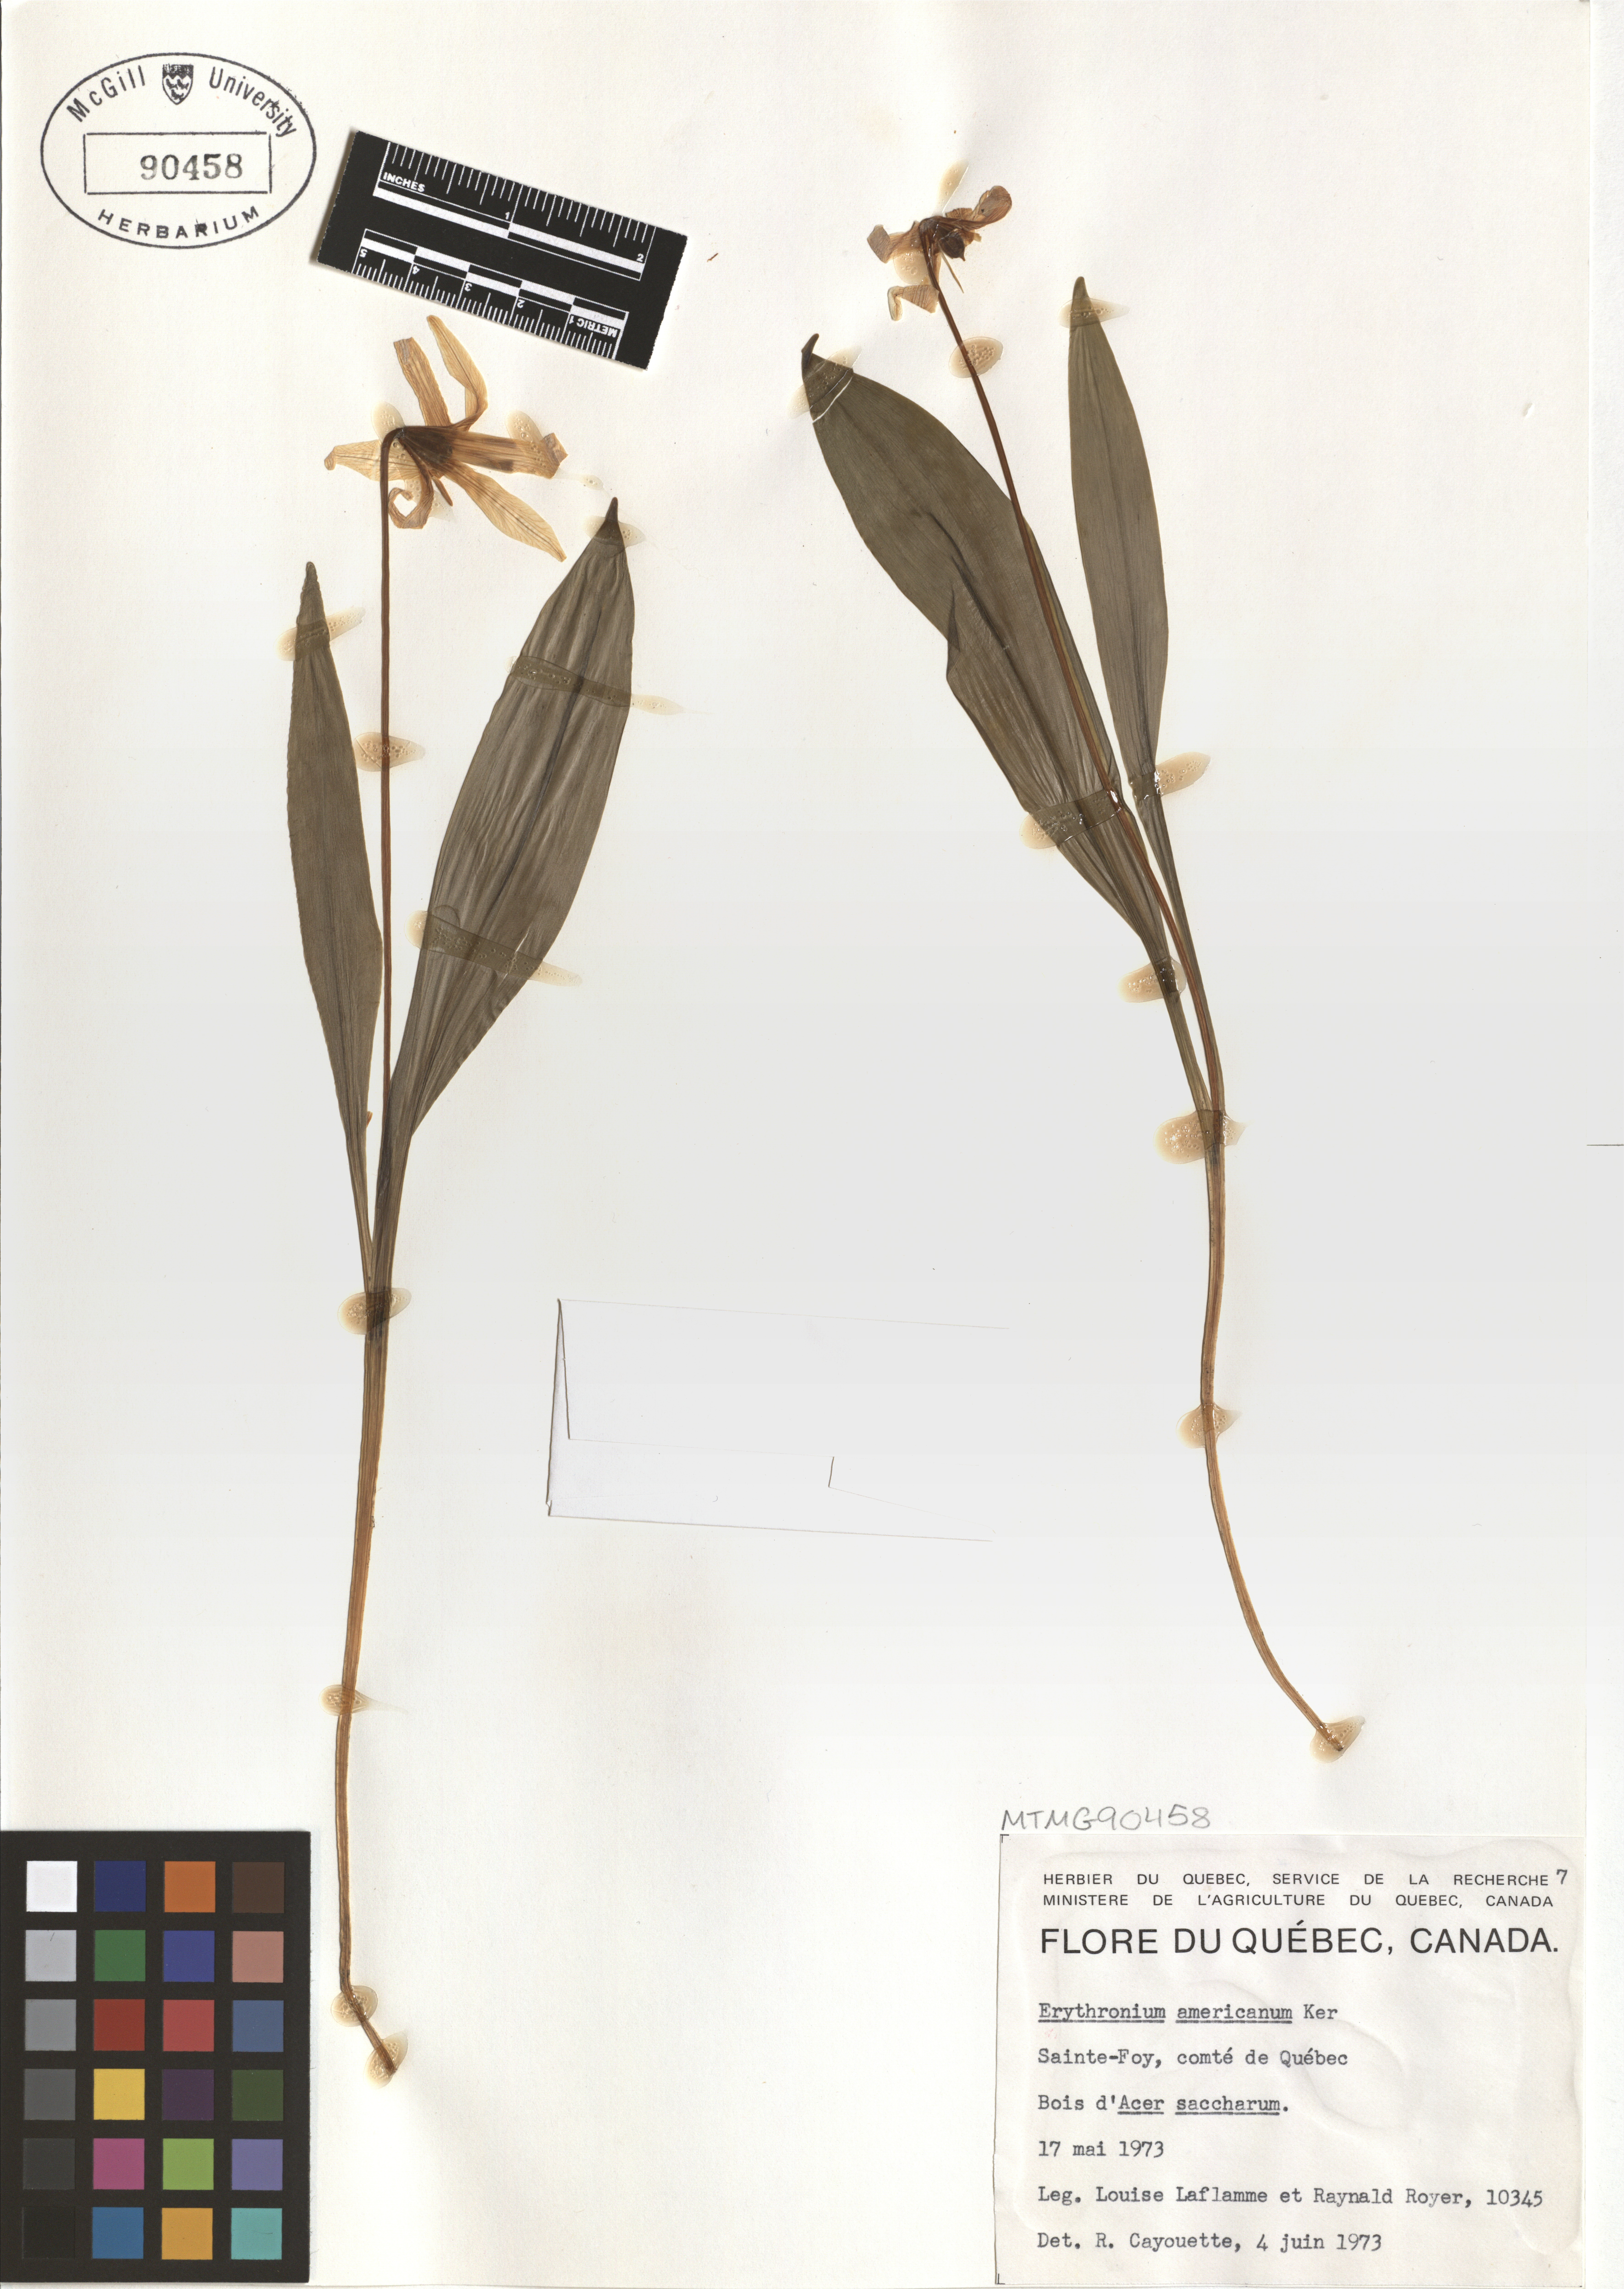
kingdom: Plantae
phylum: Tracheophyta
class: Liliopsida
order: Liliales
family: Liliaceae
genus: Erythronium
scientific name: Erythronium americanum
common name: Yellow adder's-tongue
